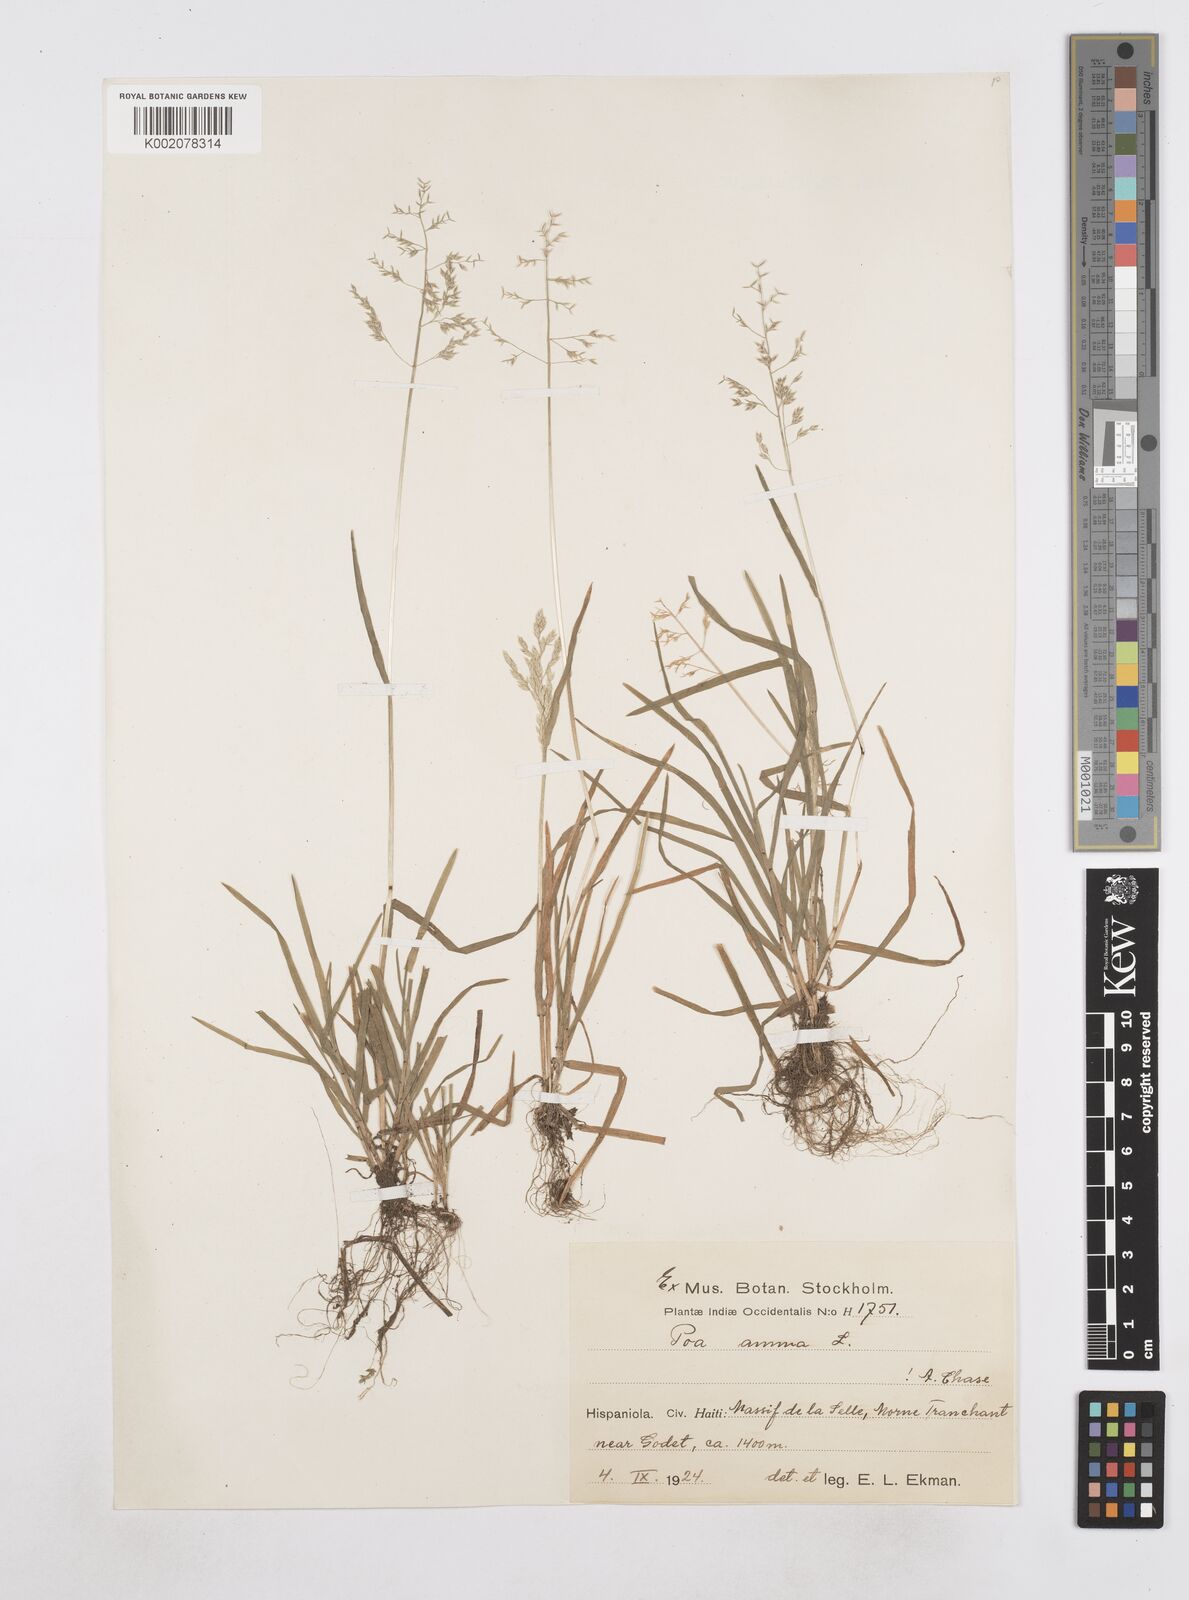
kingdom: Plantae
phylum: Tracheophyta
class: Liliopsida
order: Poales
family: Poaceae
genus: Poa
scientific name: Poa annua
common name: Annual bluegrass
